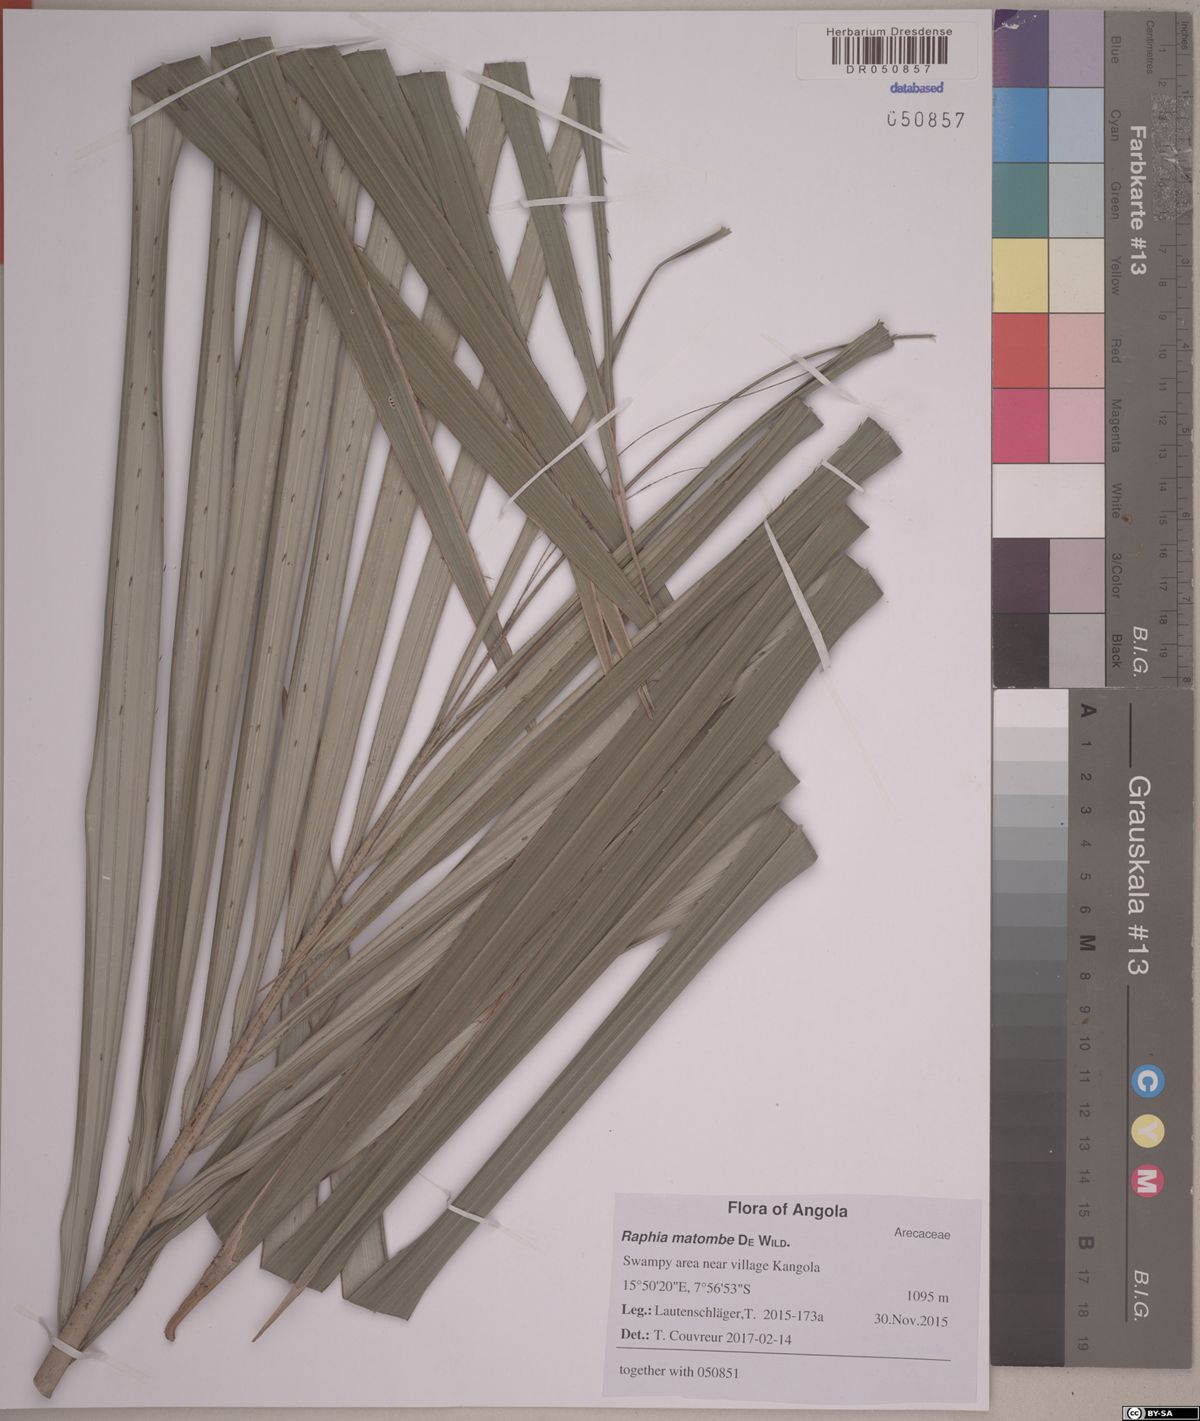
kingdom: Plantae
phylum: Tracheophyta
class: Liliopsida
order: Arecales
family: Arecaceae
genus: Raphia
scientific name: Raphia matombe
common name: Raphia palm
